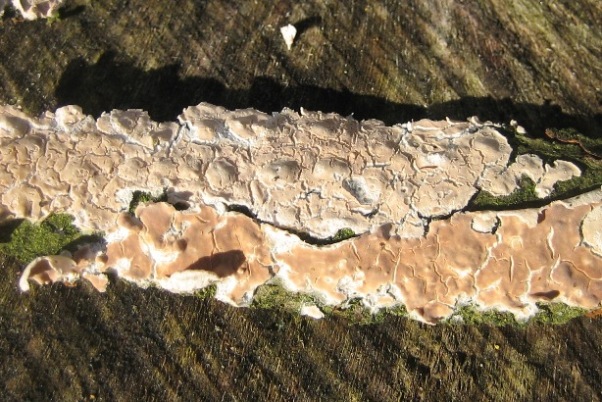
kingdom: Fungi
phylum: Basidiomycota
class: Agaricomycetes
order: Agaricales
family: Physalacriaceae
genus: Cylindrobasidium
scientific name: Cylindrobasidium evolvens
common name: sprækkehinde
